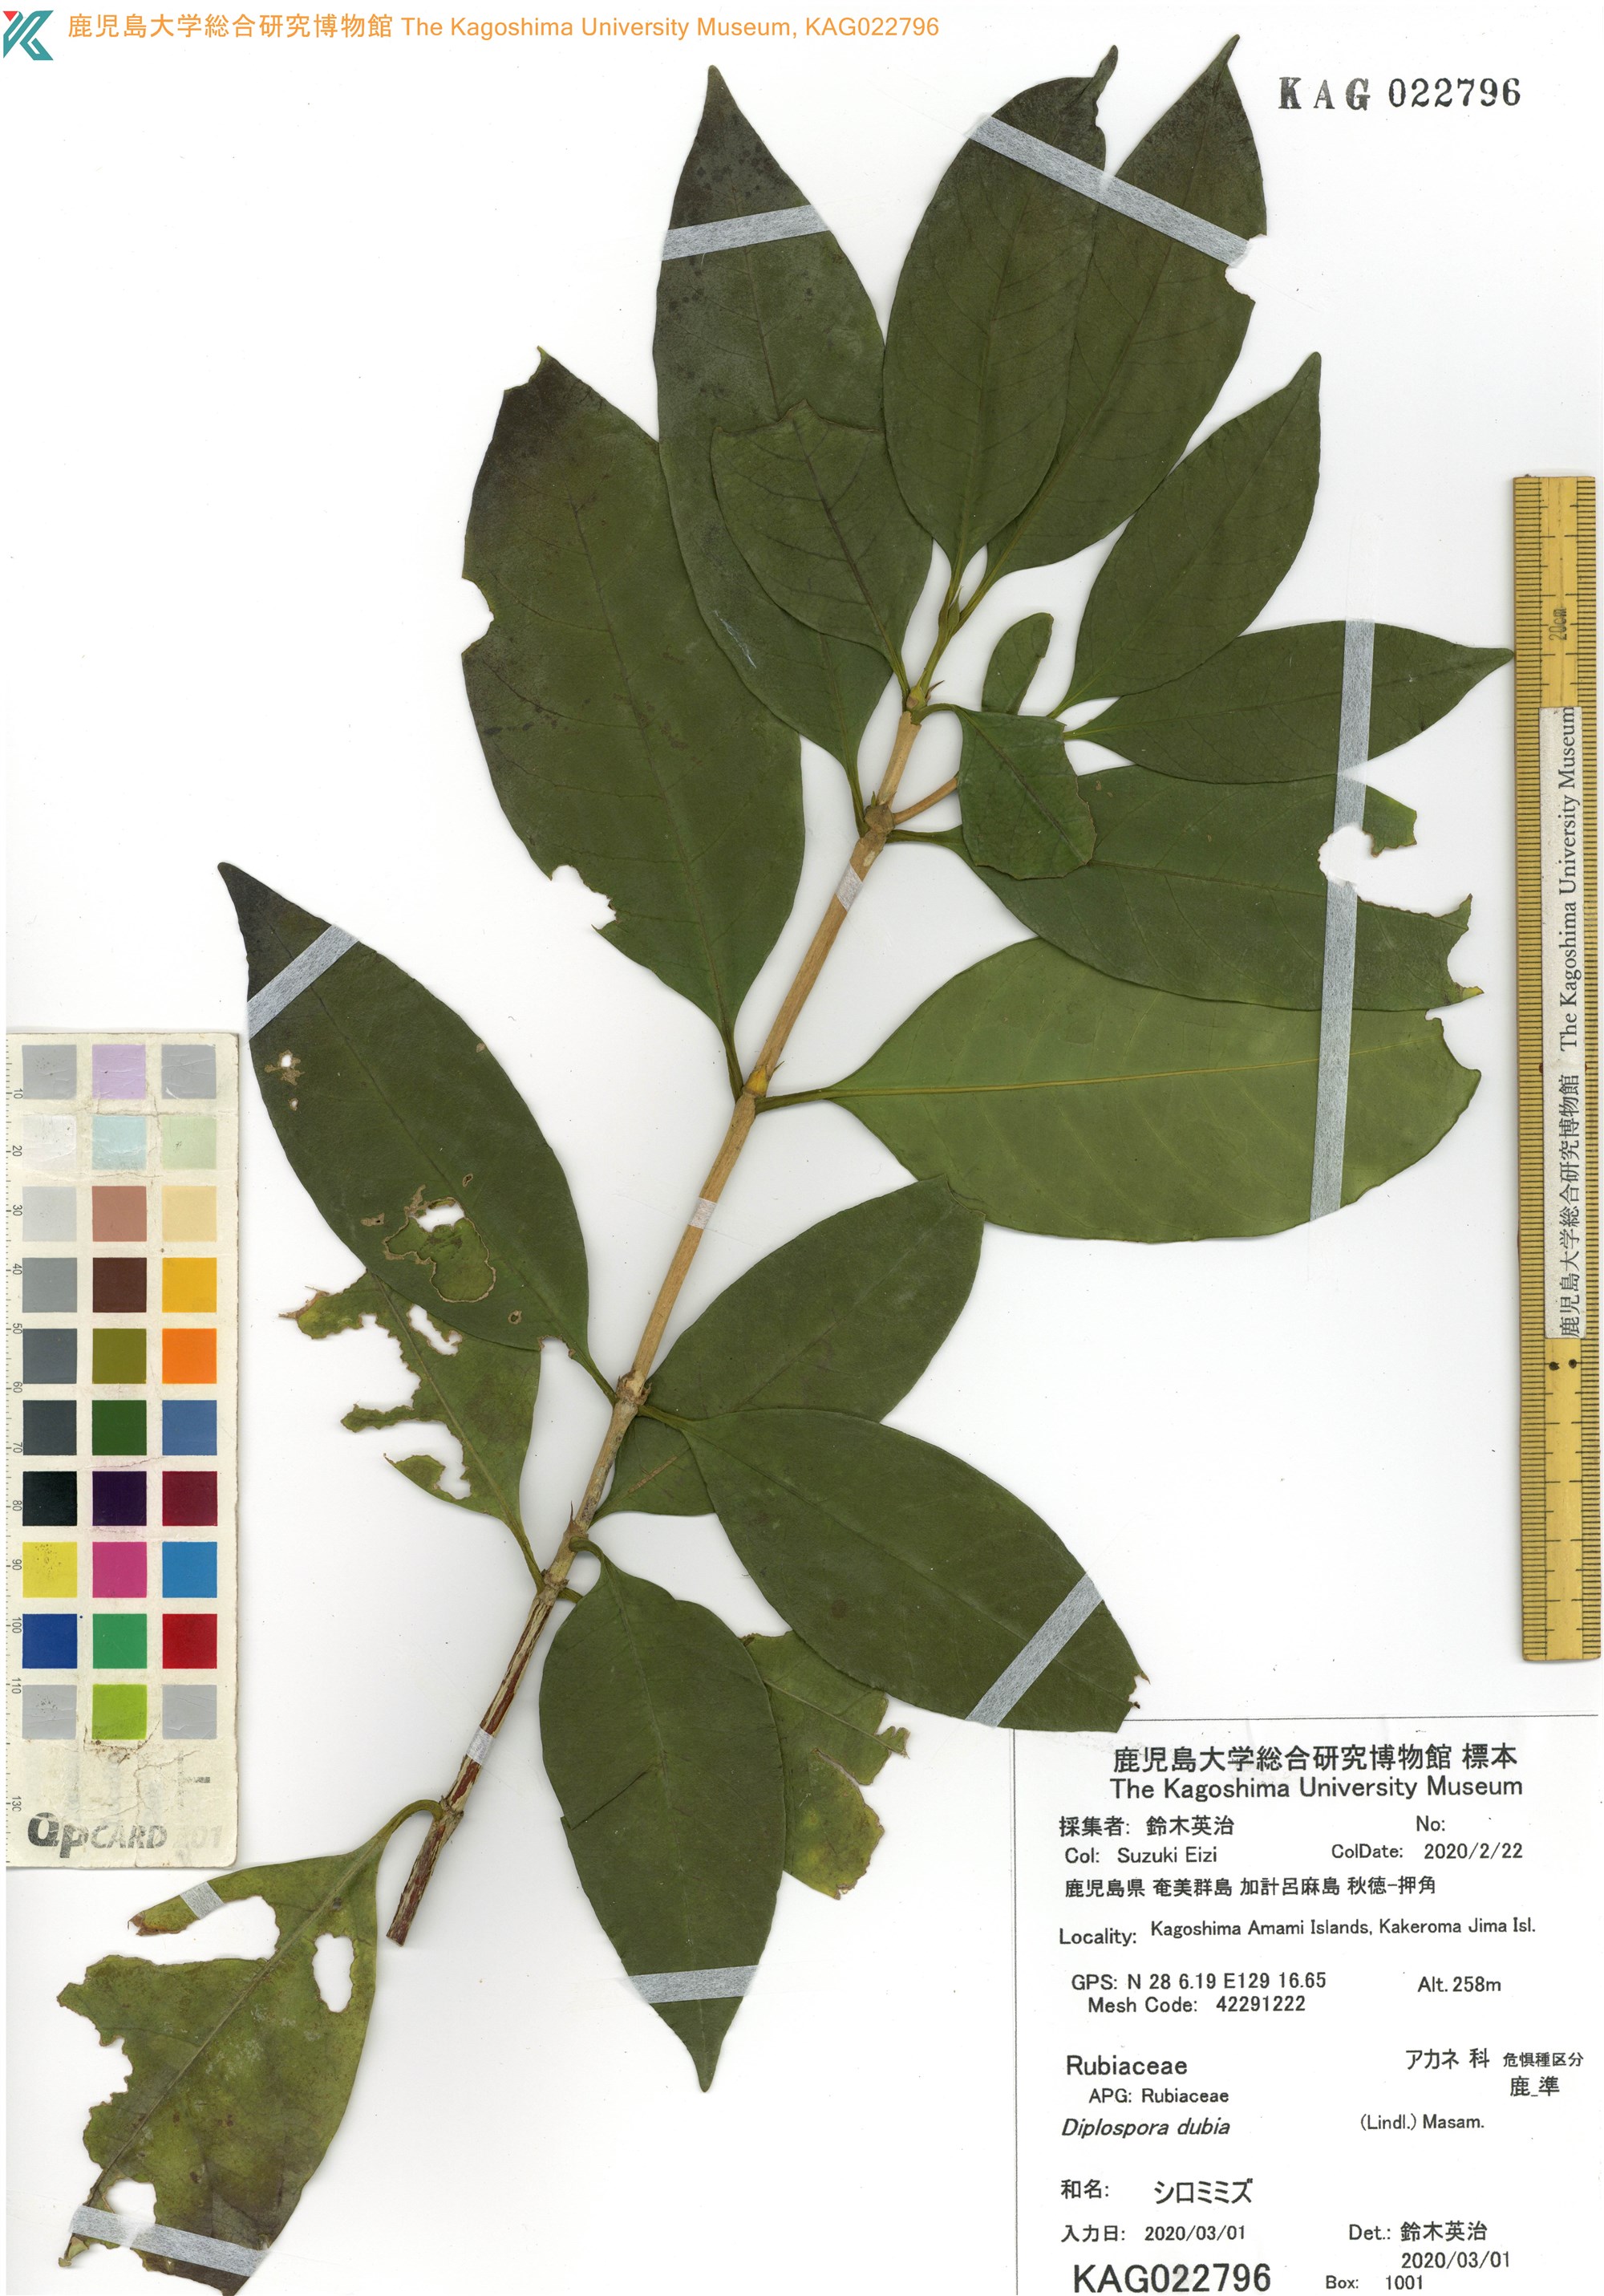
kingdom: Plantae
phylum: Tracheophyta
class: Magnoliopsida
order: Gentianales
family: Rubiaceae
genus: Diplospora
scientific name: Diplospora dubia
